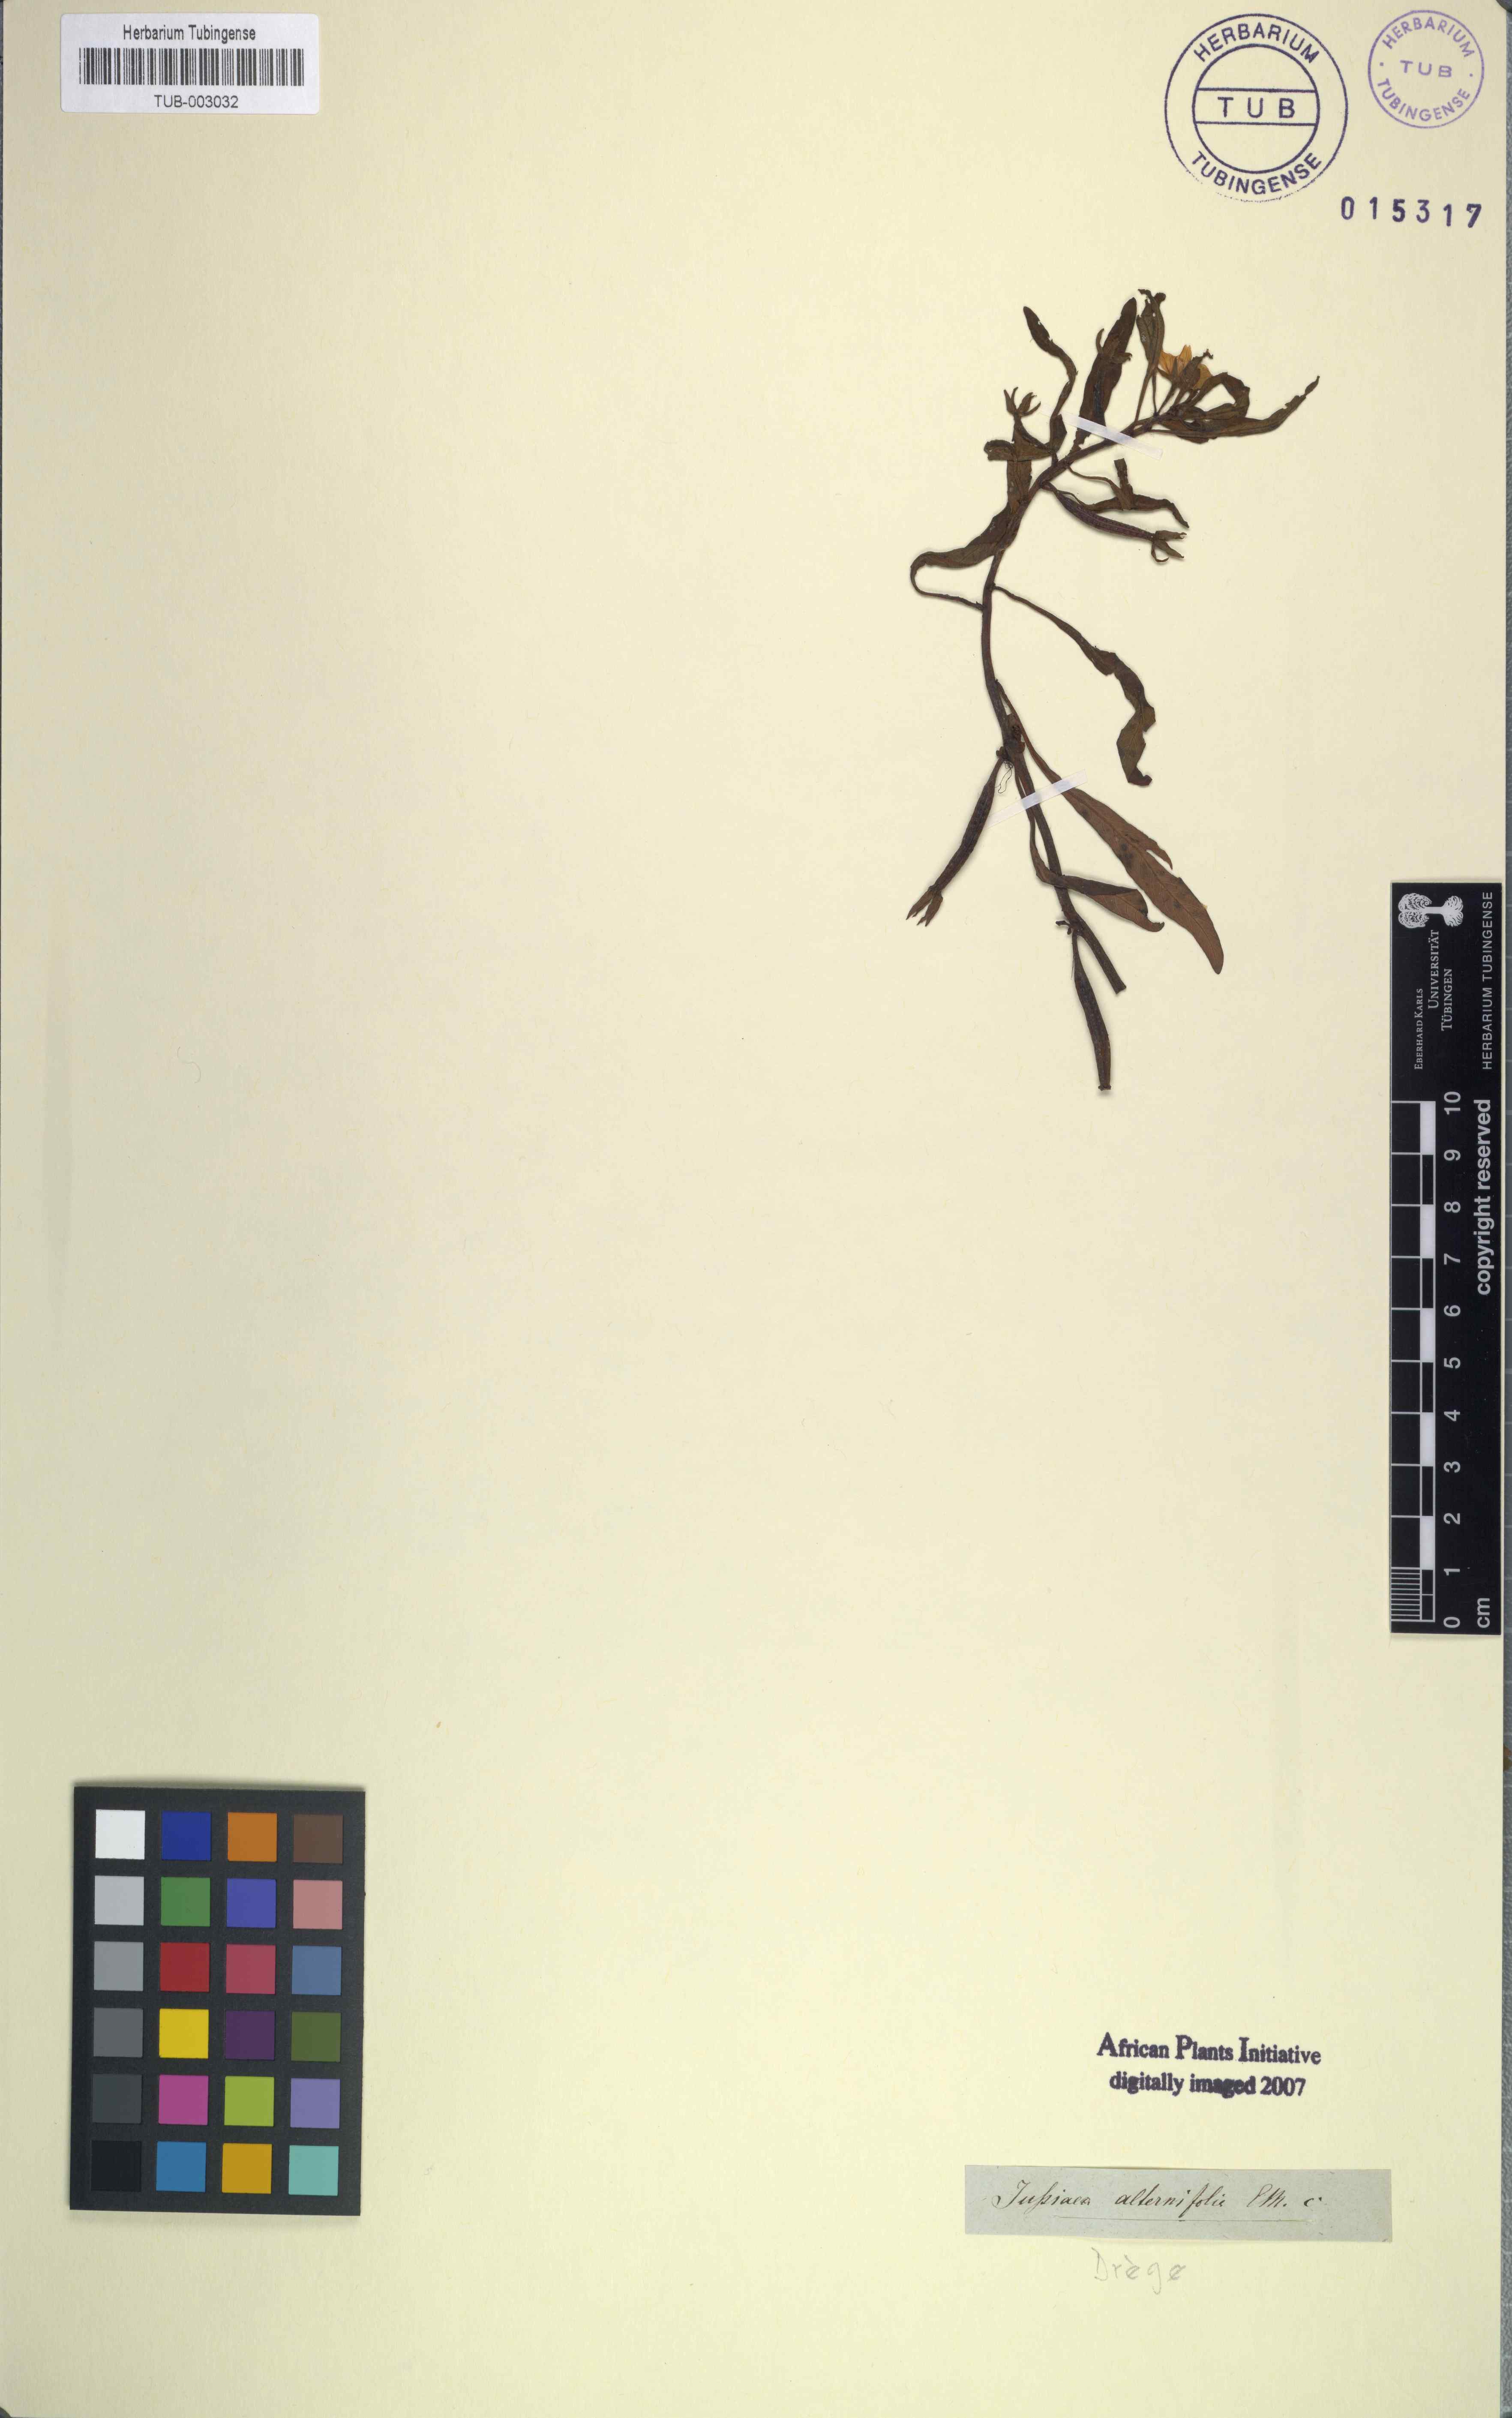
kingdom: Plantae
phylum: Tracheophyta
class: Magnoliopsida
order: Myrtales
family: Onagraceae
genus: Ludwigia
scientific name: Ludwigia adscendens
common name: Creeping water primrose
